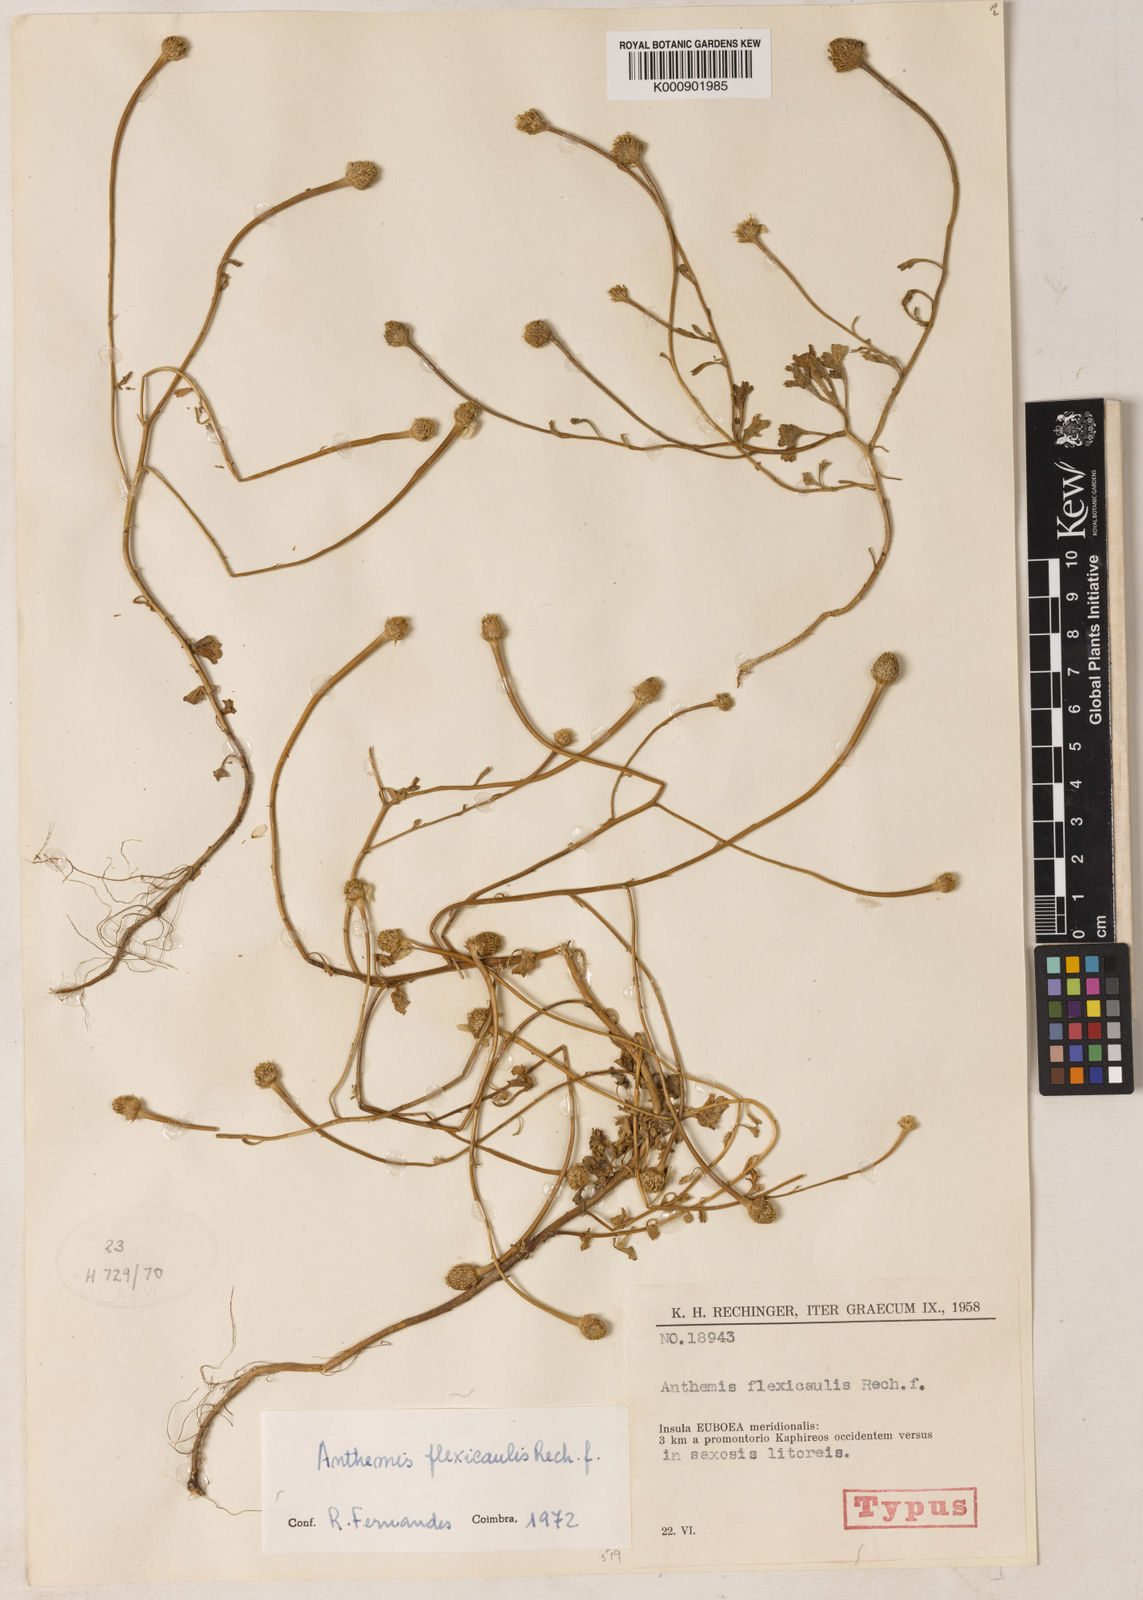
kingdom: Plantae
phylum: Tracheophyta
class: Magnoliopsida
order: Asterales
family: Asteraceae
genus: Anthemis
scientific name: Anthemis werneri
